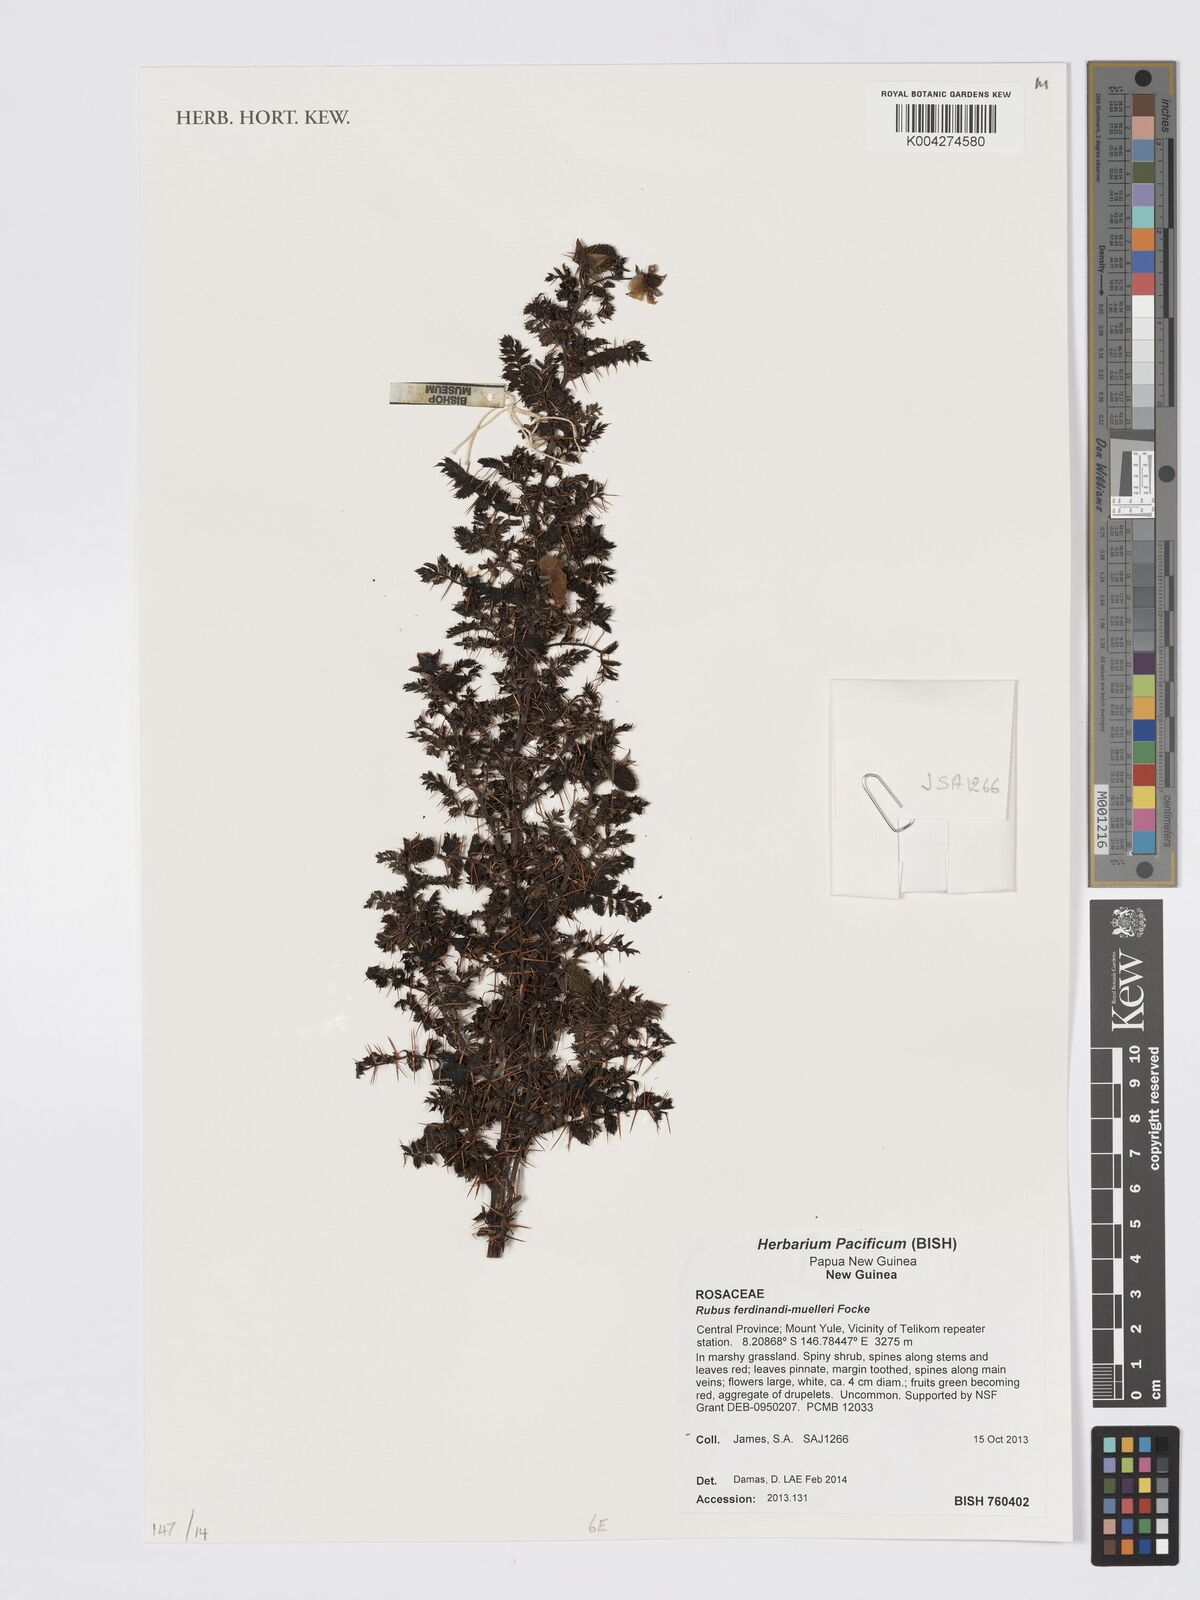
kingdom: Plantae
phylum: Tracheophyta
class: Magnoliopsida
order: Rosales
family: Rosaceae
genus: Rubus
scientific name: Rubus ferdinandimuelleri
